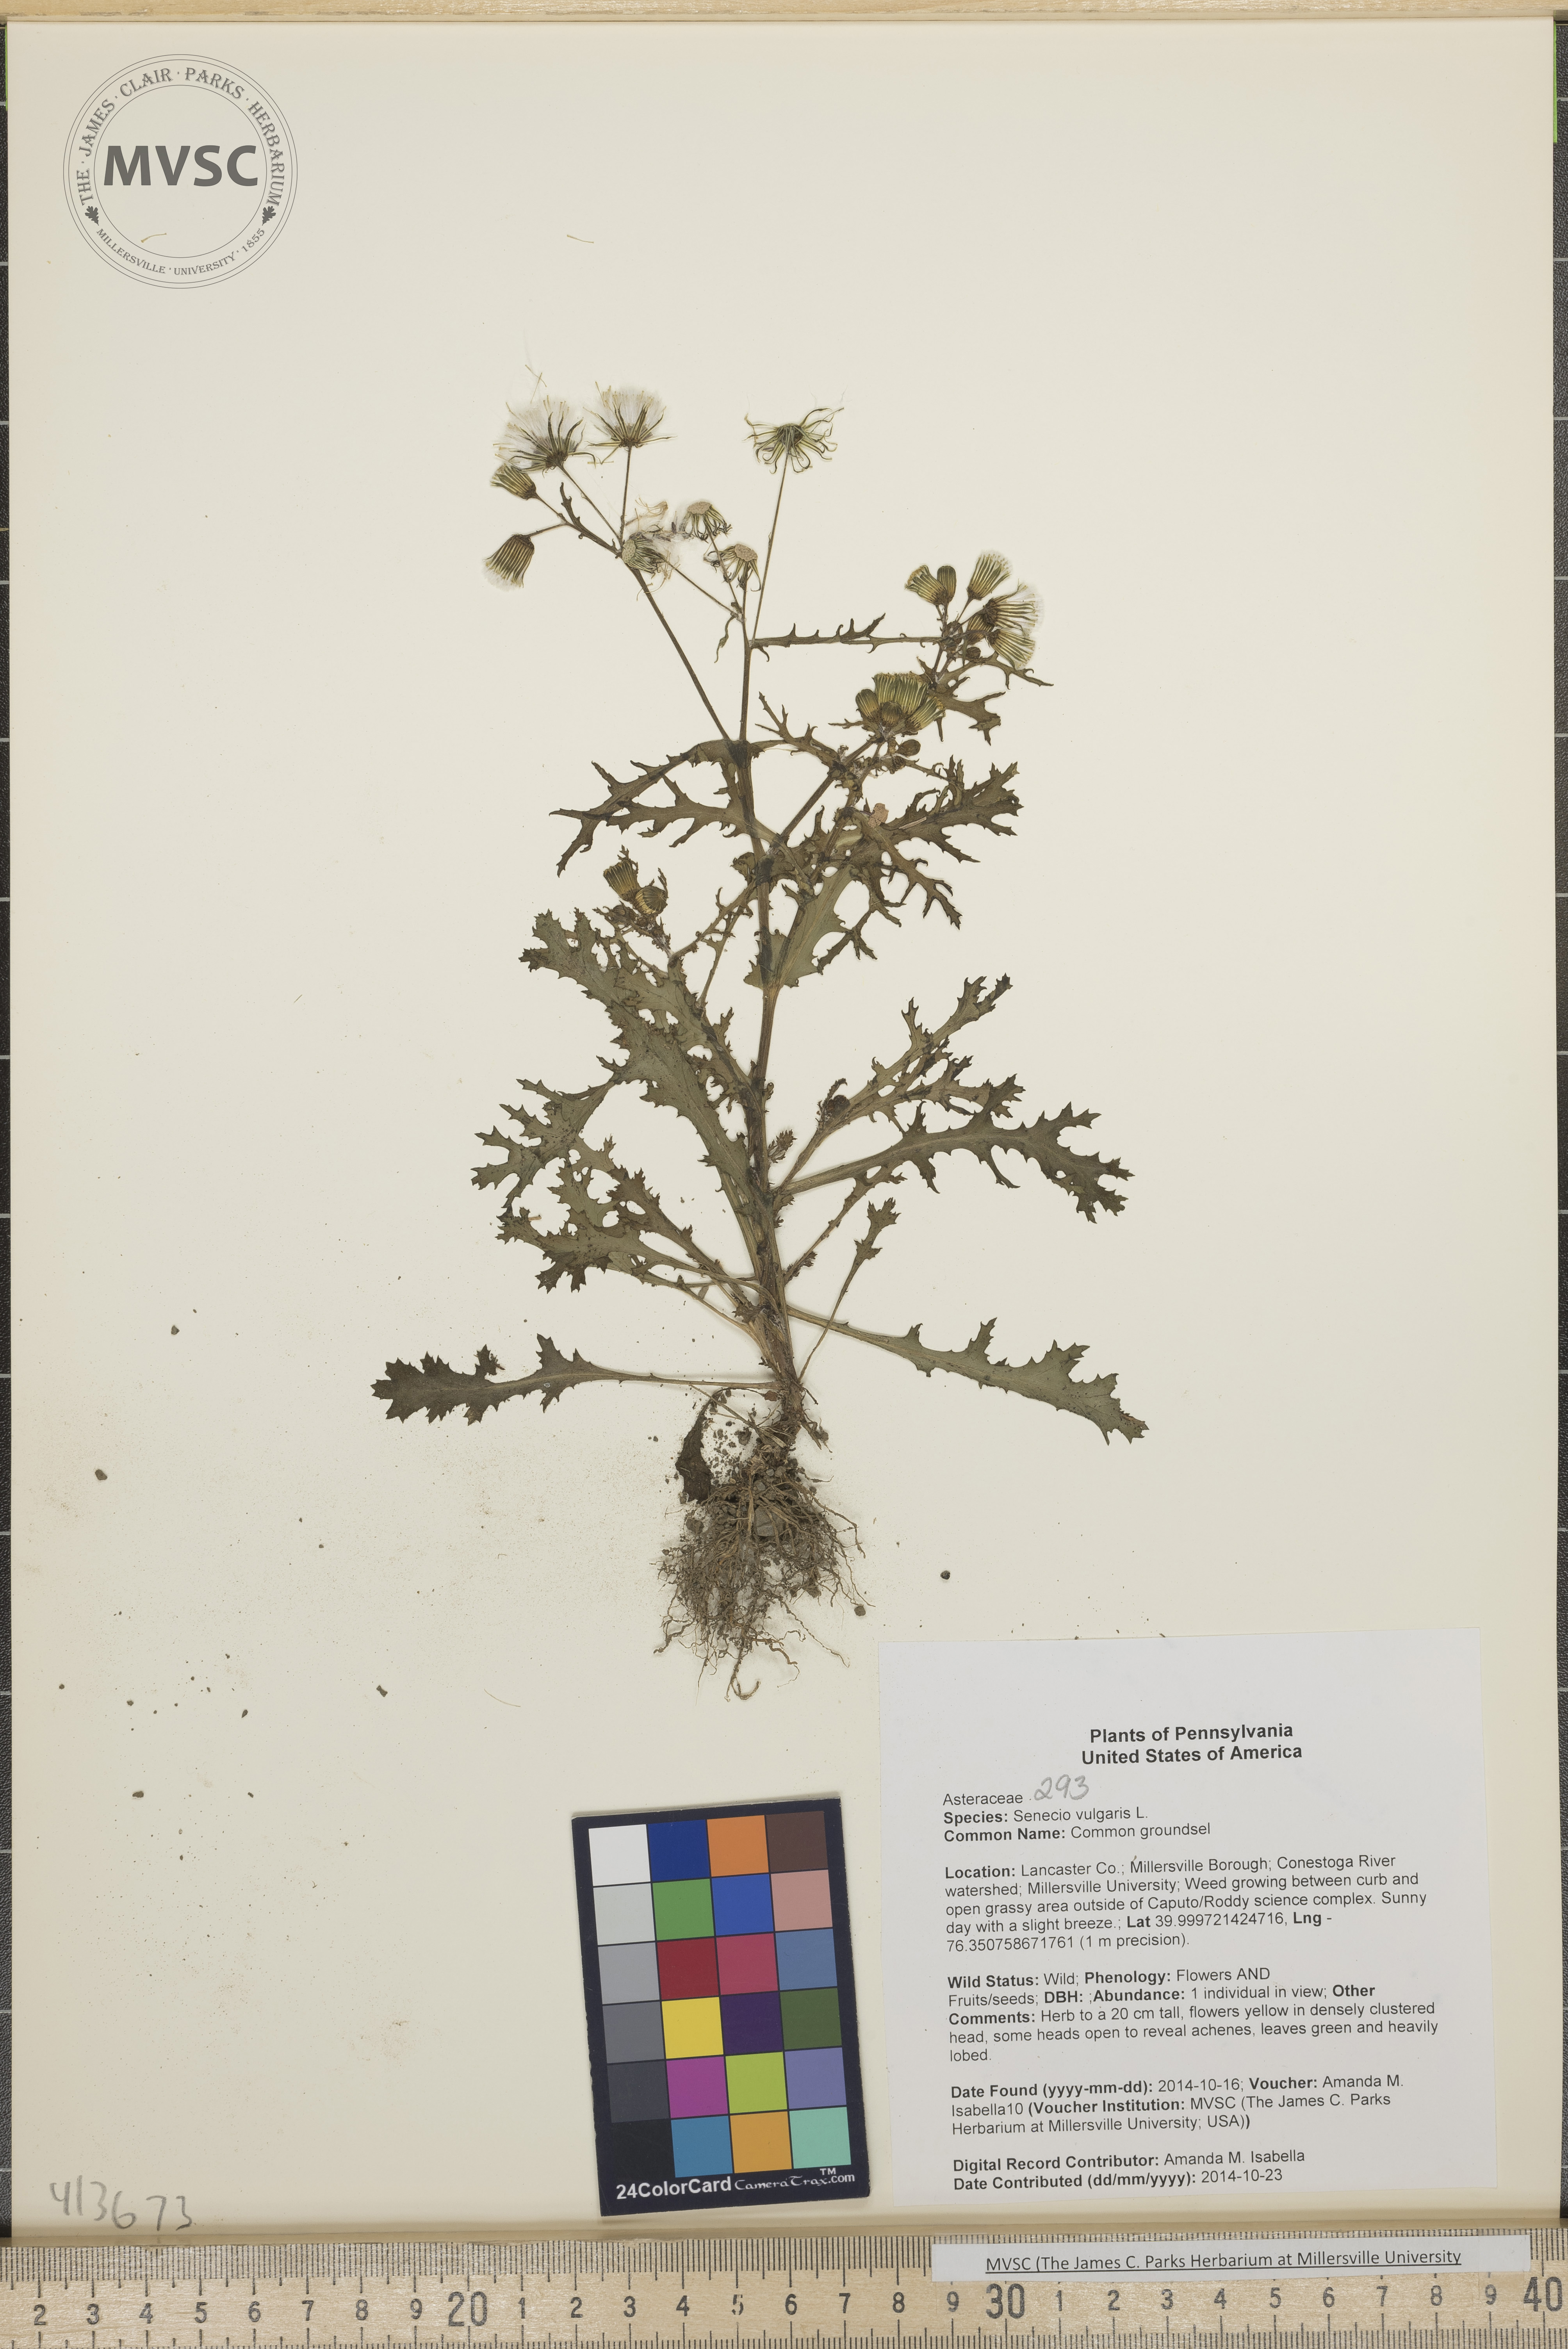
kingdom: Plantae
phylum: Tracheophyta
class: Magnoliopsida
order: Asterales
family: Asteraceae
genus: Senecio
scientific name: Senecio vulgaris
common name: Common groundsel
